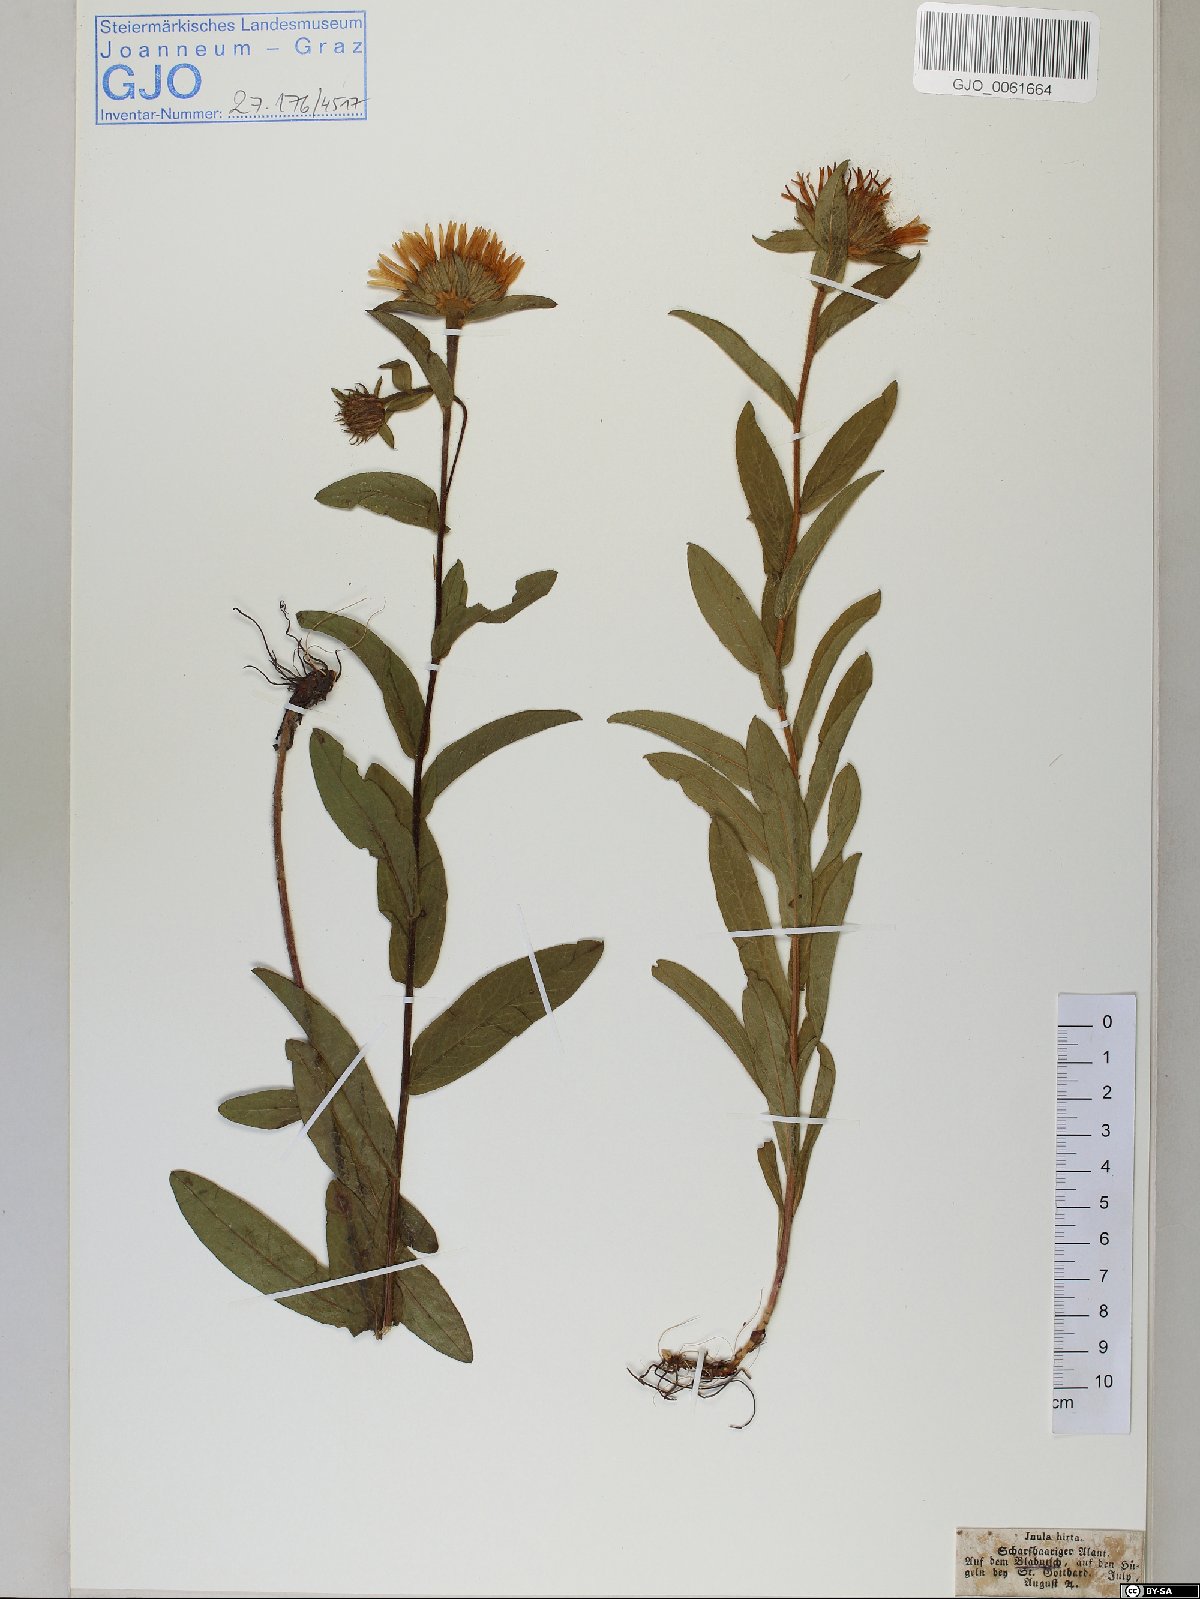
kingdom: Plantae
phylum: Tracheophyta
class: Magnoliopsida
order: Asterales
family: Asteraceae
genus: Pentanema
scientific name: Pentanema hirtum
